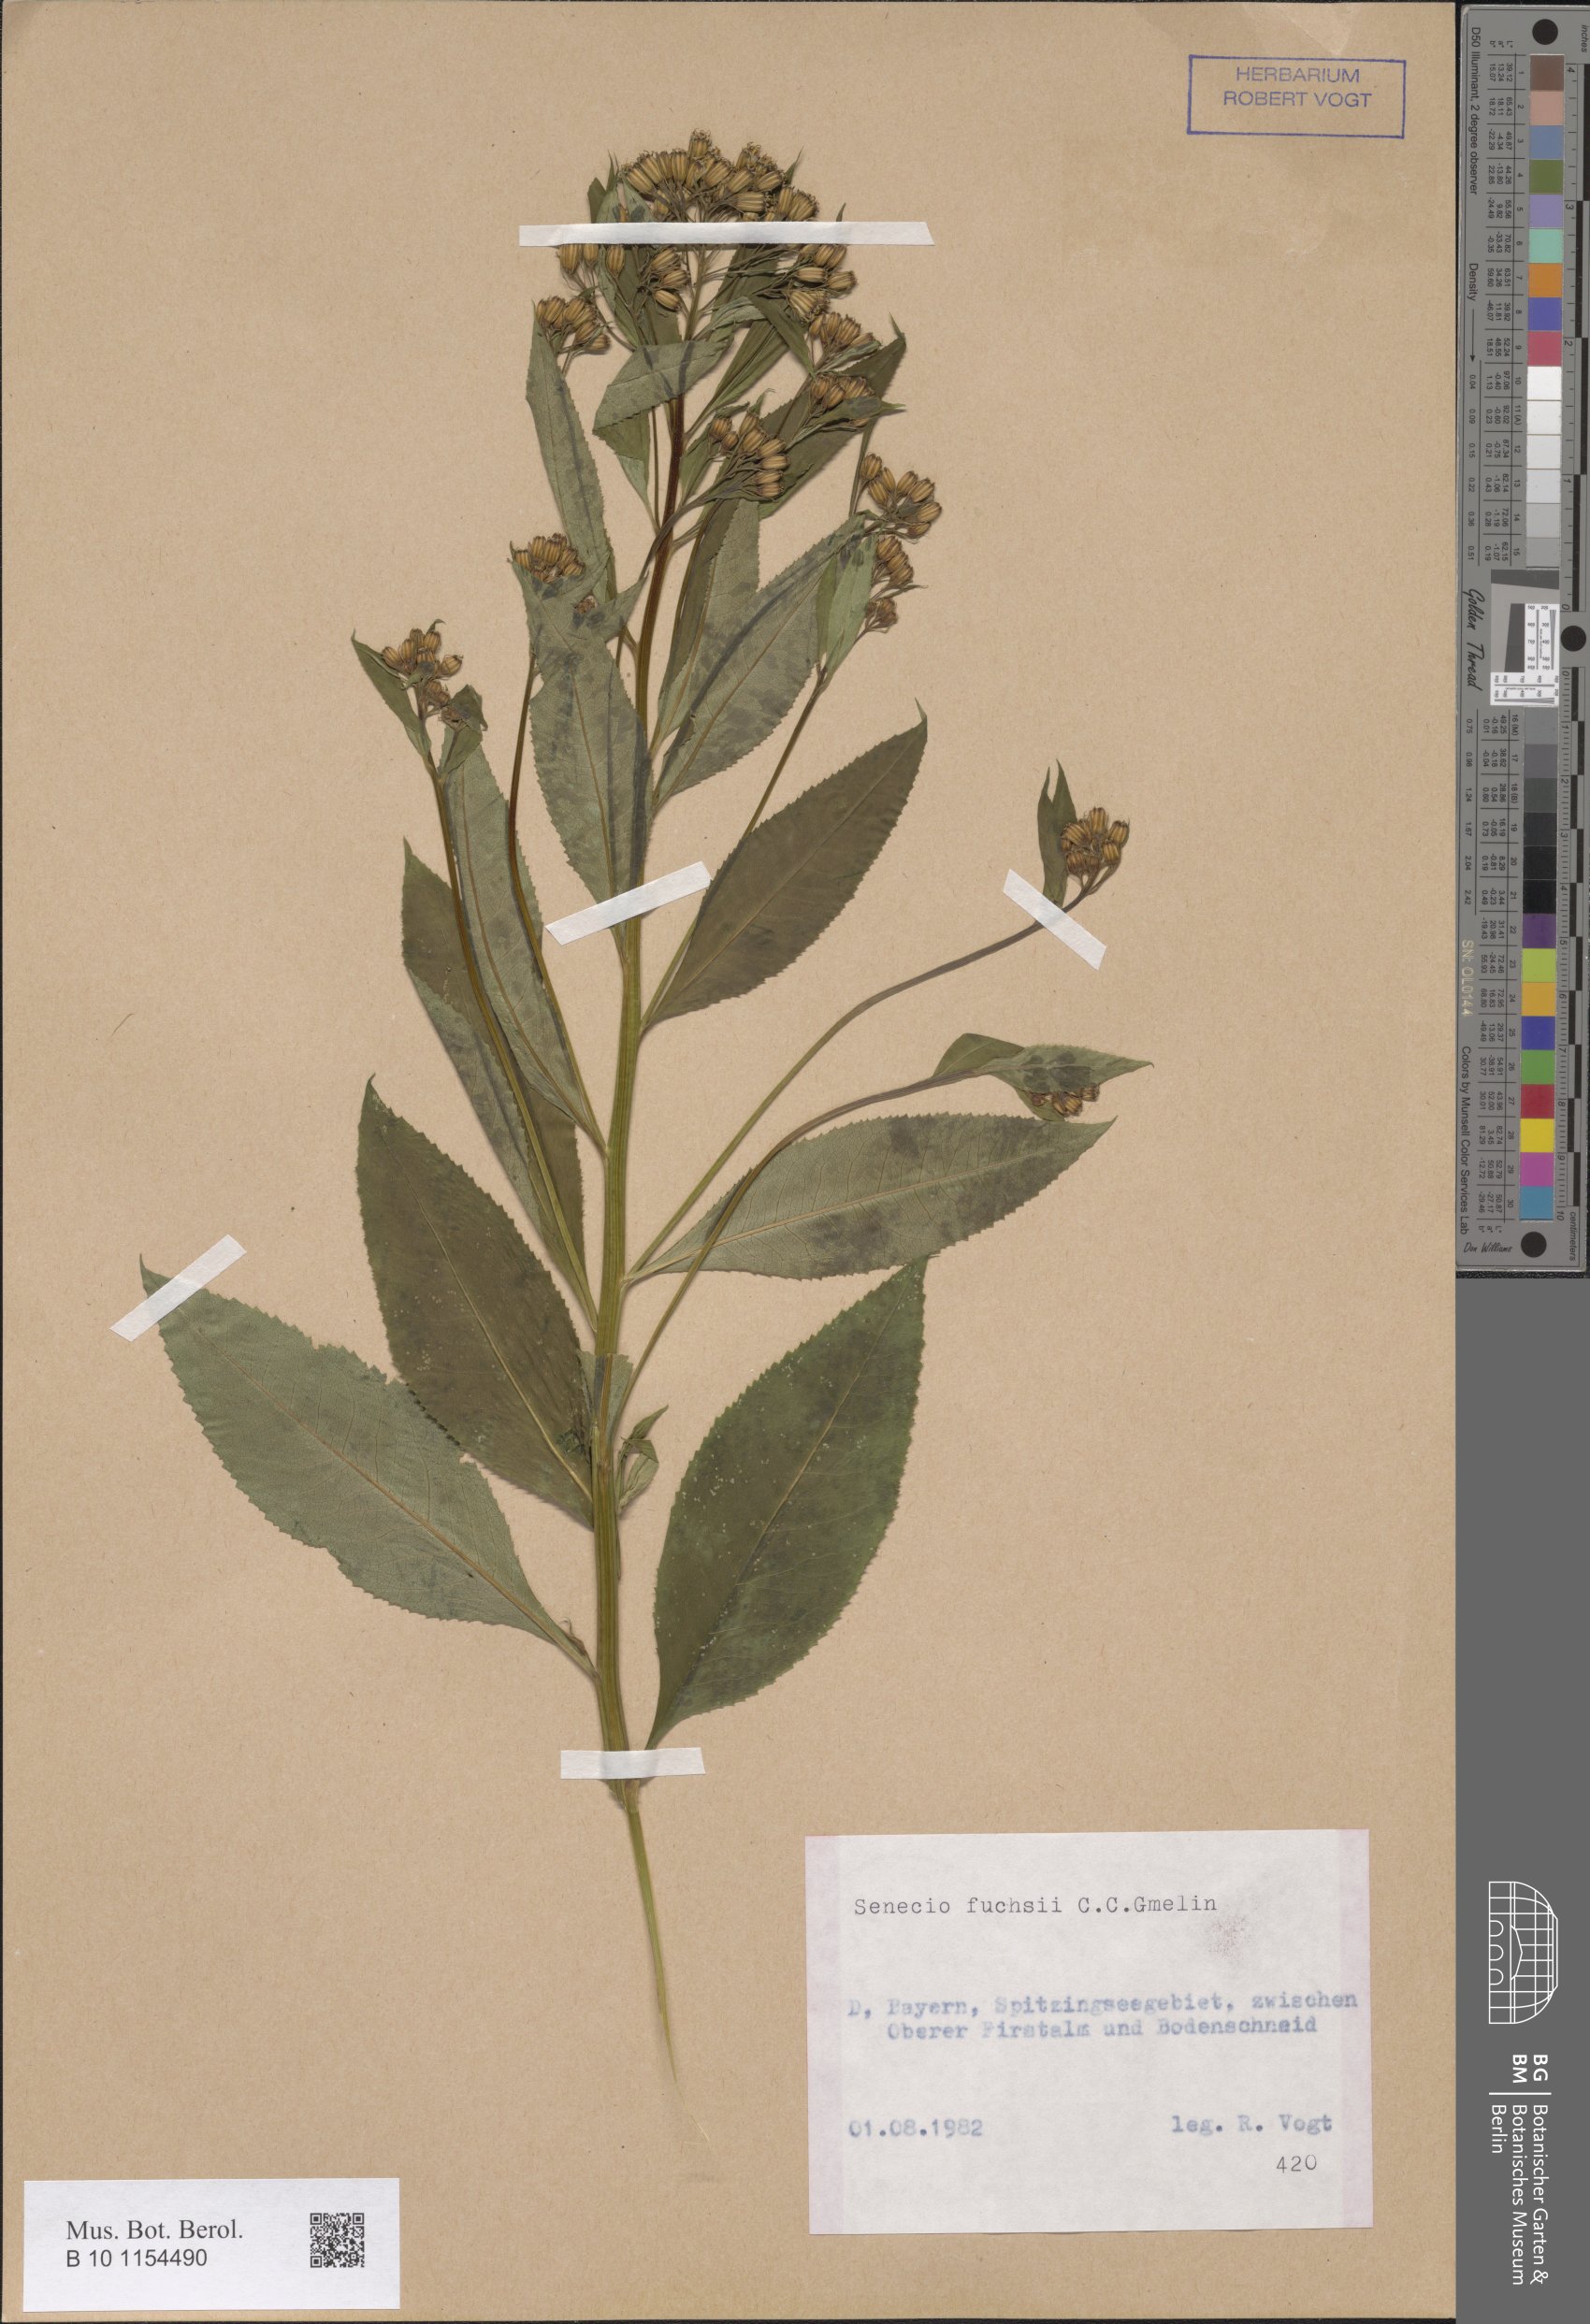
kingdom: Plantae
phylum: Tracheophyta
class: Magnoliopsida
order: Asterales
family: Asteraceae
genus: Senecio
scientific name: Senecio ovatus
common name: Wood ragwort
